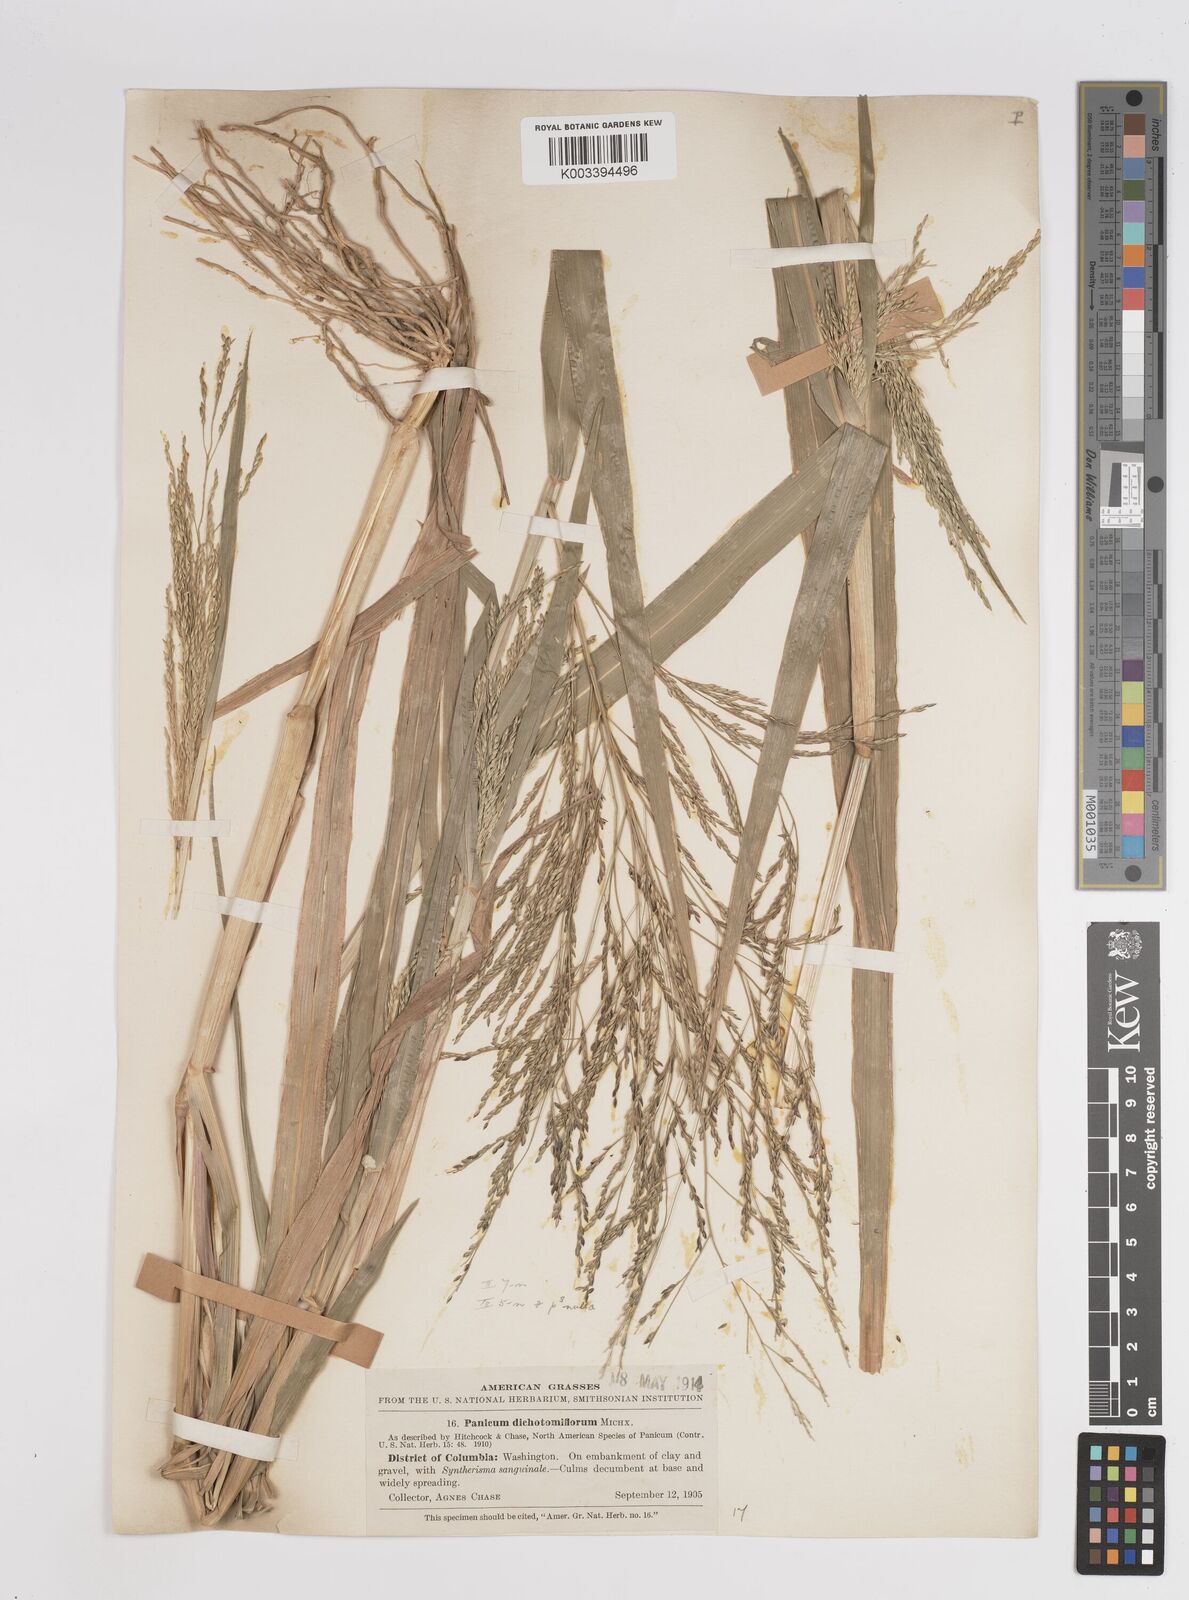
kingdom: Plantae
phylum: Tracheophyta
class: Liliopsida
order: Poales
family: Poaceae
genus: Panicum
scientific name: Panicum dichotomiflorum
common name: Autumn millet
